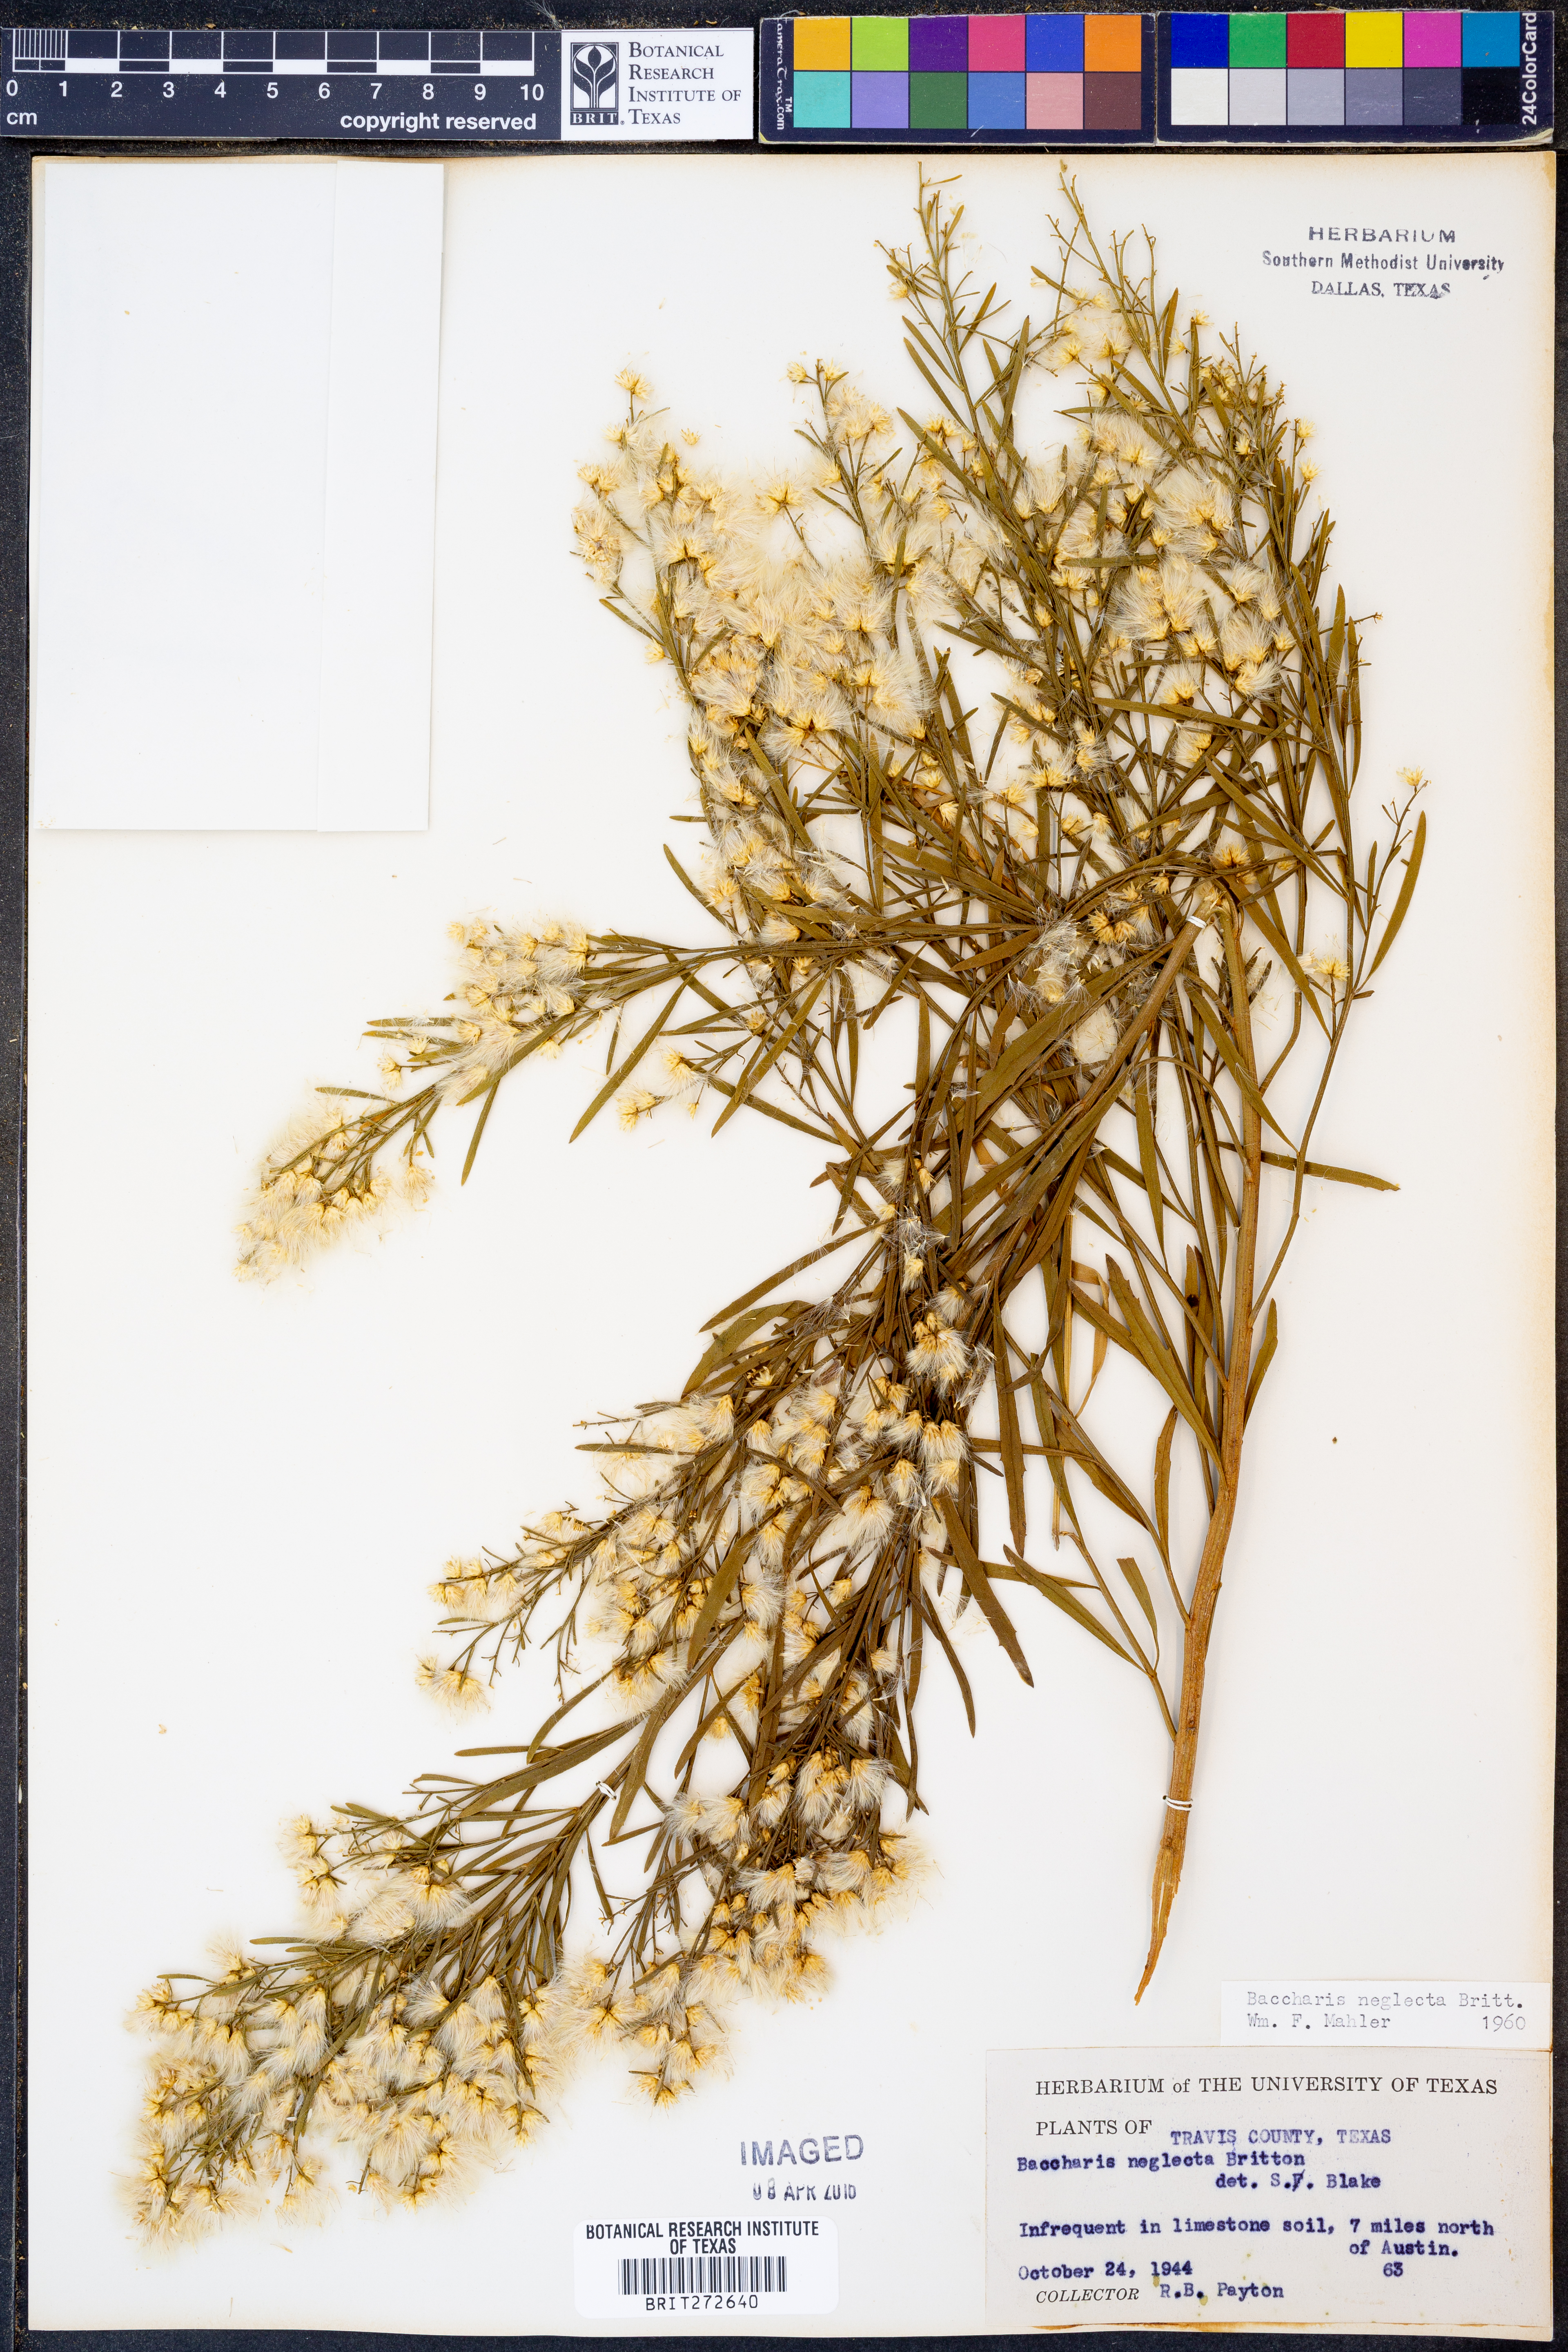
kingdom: Plantae
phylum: Tracheophyta
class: Magnoliopsida
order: Asterales
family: Asteraceae
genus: Baccharis
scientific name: Baccharis neglecta
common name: Roosevelt-weed
